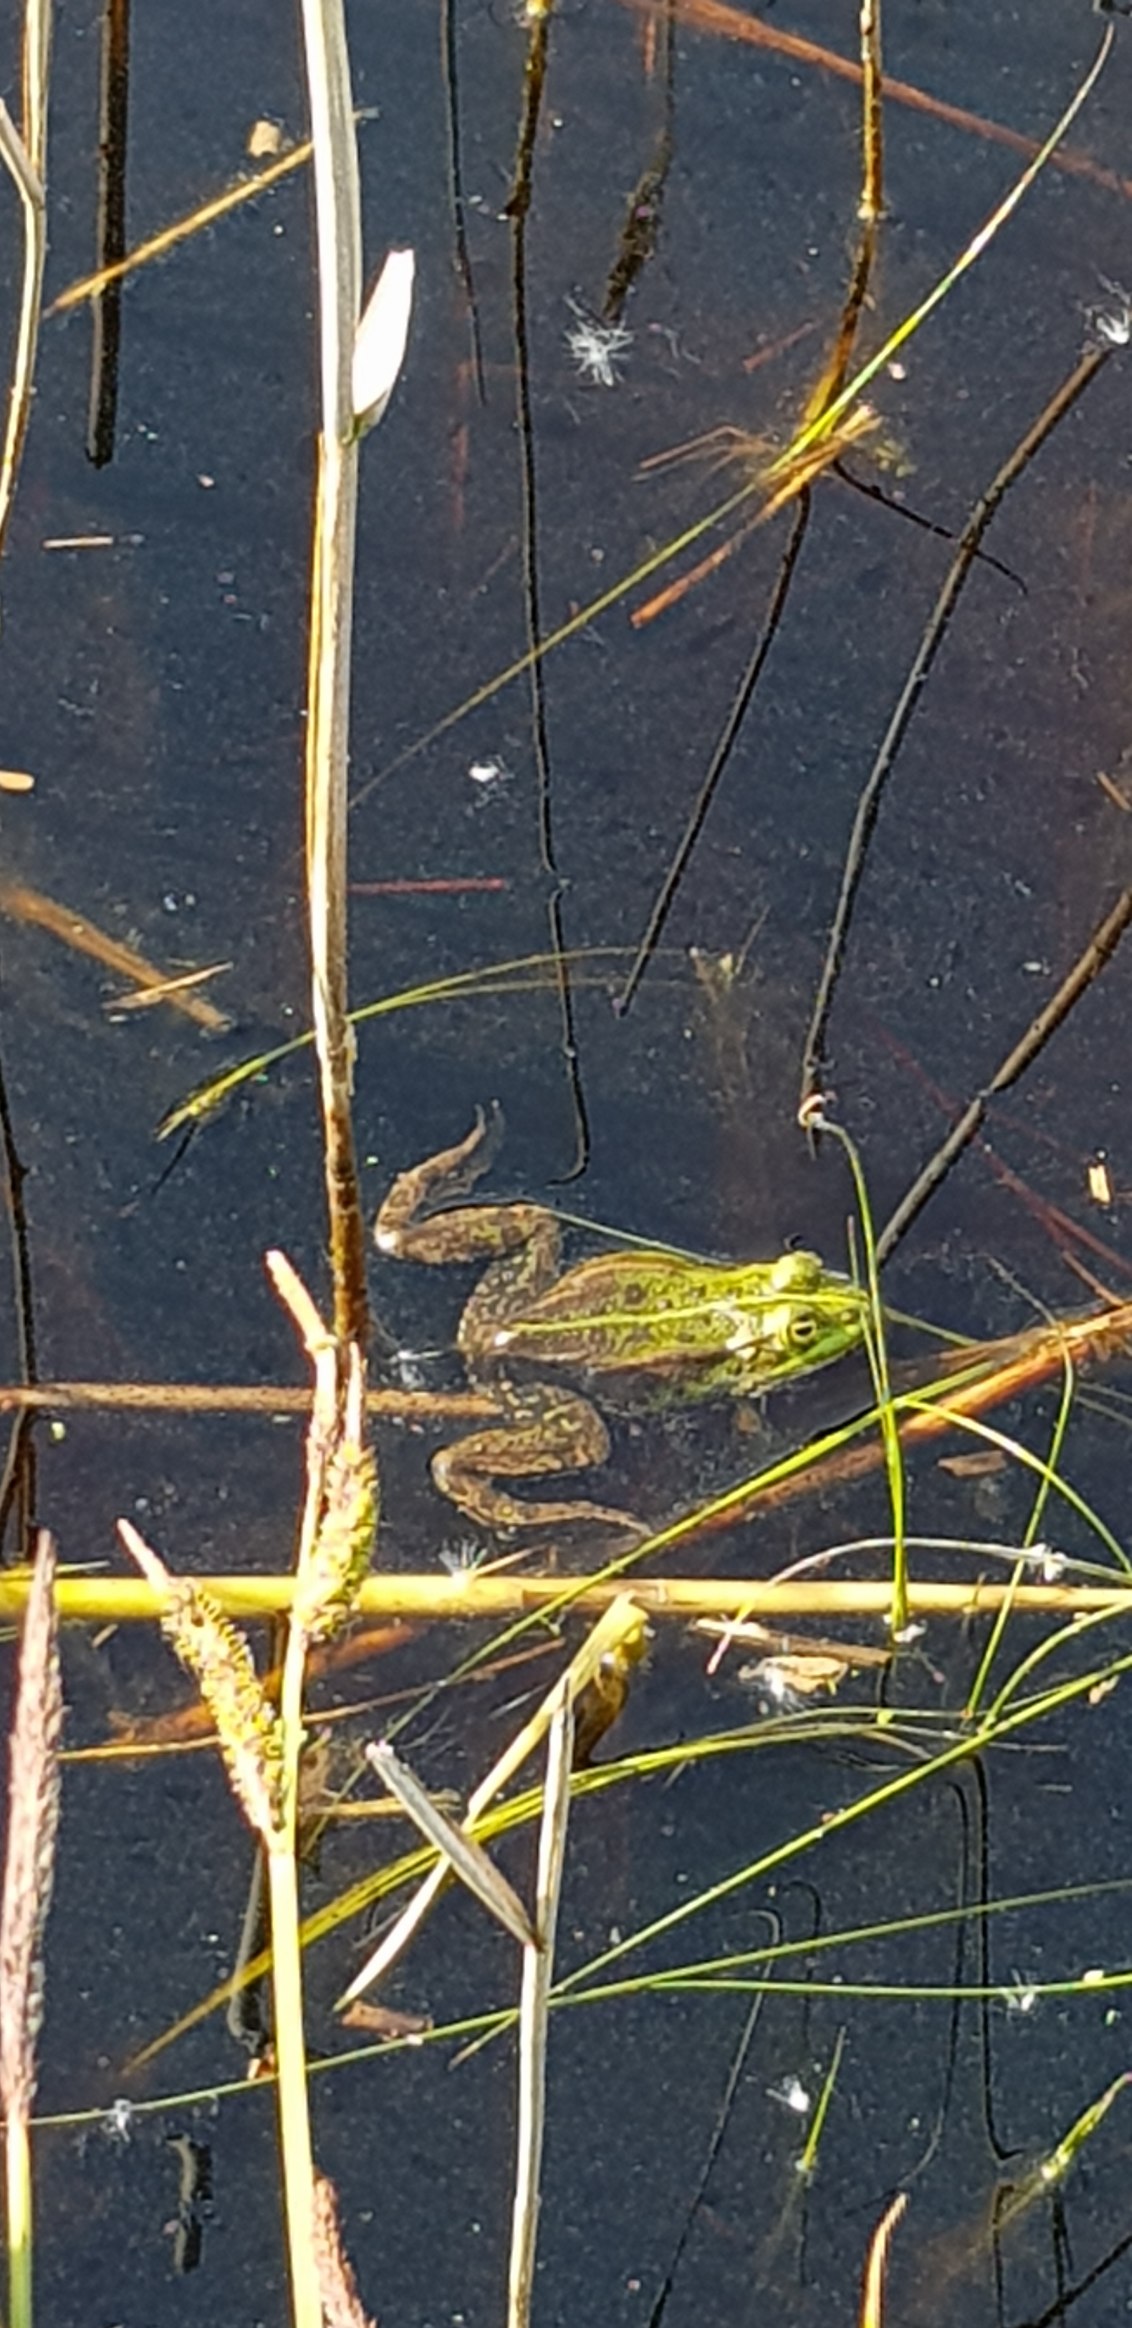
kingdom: Animalia
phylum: Chordata
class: Amphibia
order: Anura
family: Ranidae
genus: Pelophylax
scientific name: Pelophylax lessonae
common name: Grøn frø
